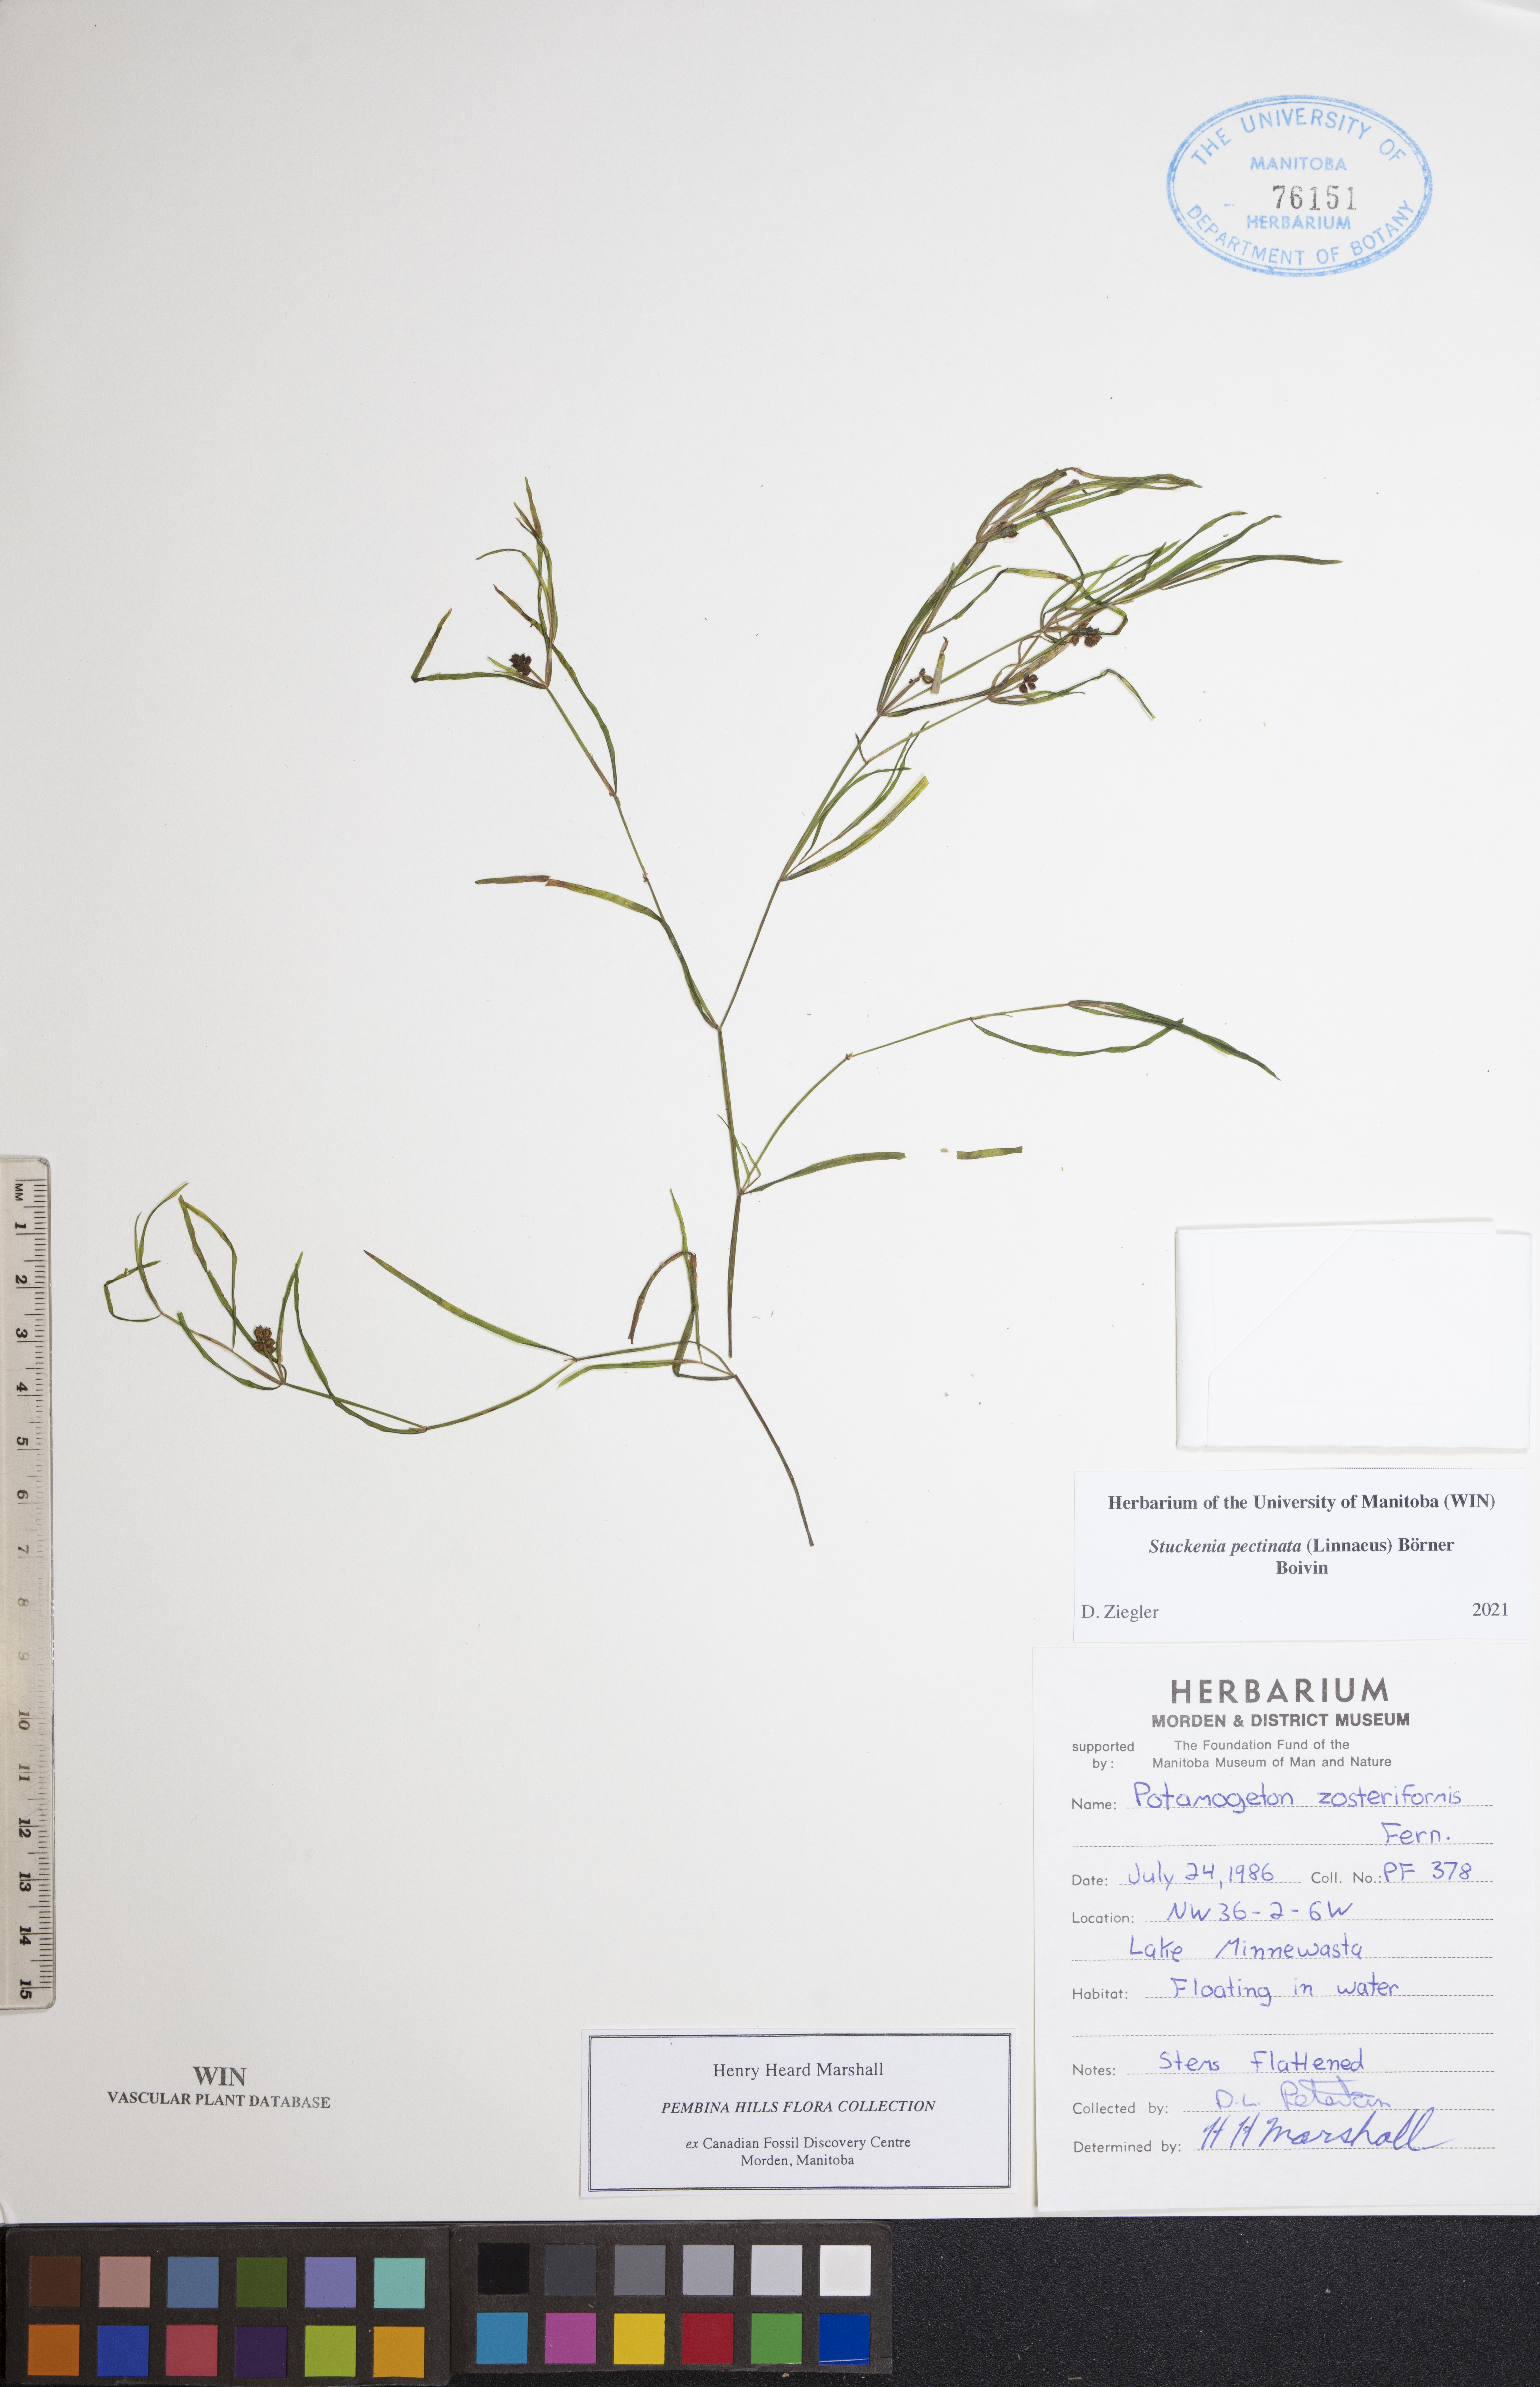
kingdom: Plantae
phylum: Tracheophyta
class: Liliopsida
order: Alismatales
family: Potamogetonaceae
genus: Stuckenia
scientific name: Stuckenia pectinata
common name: Sago pondweed
